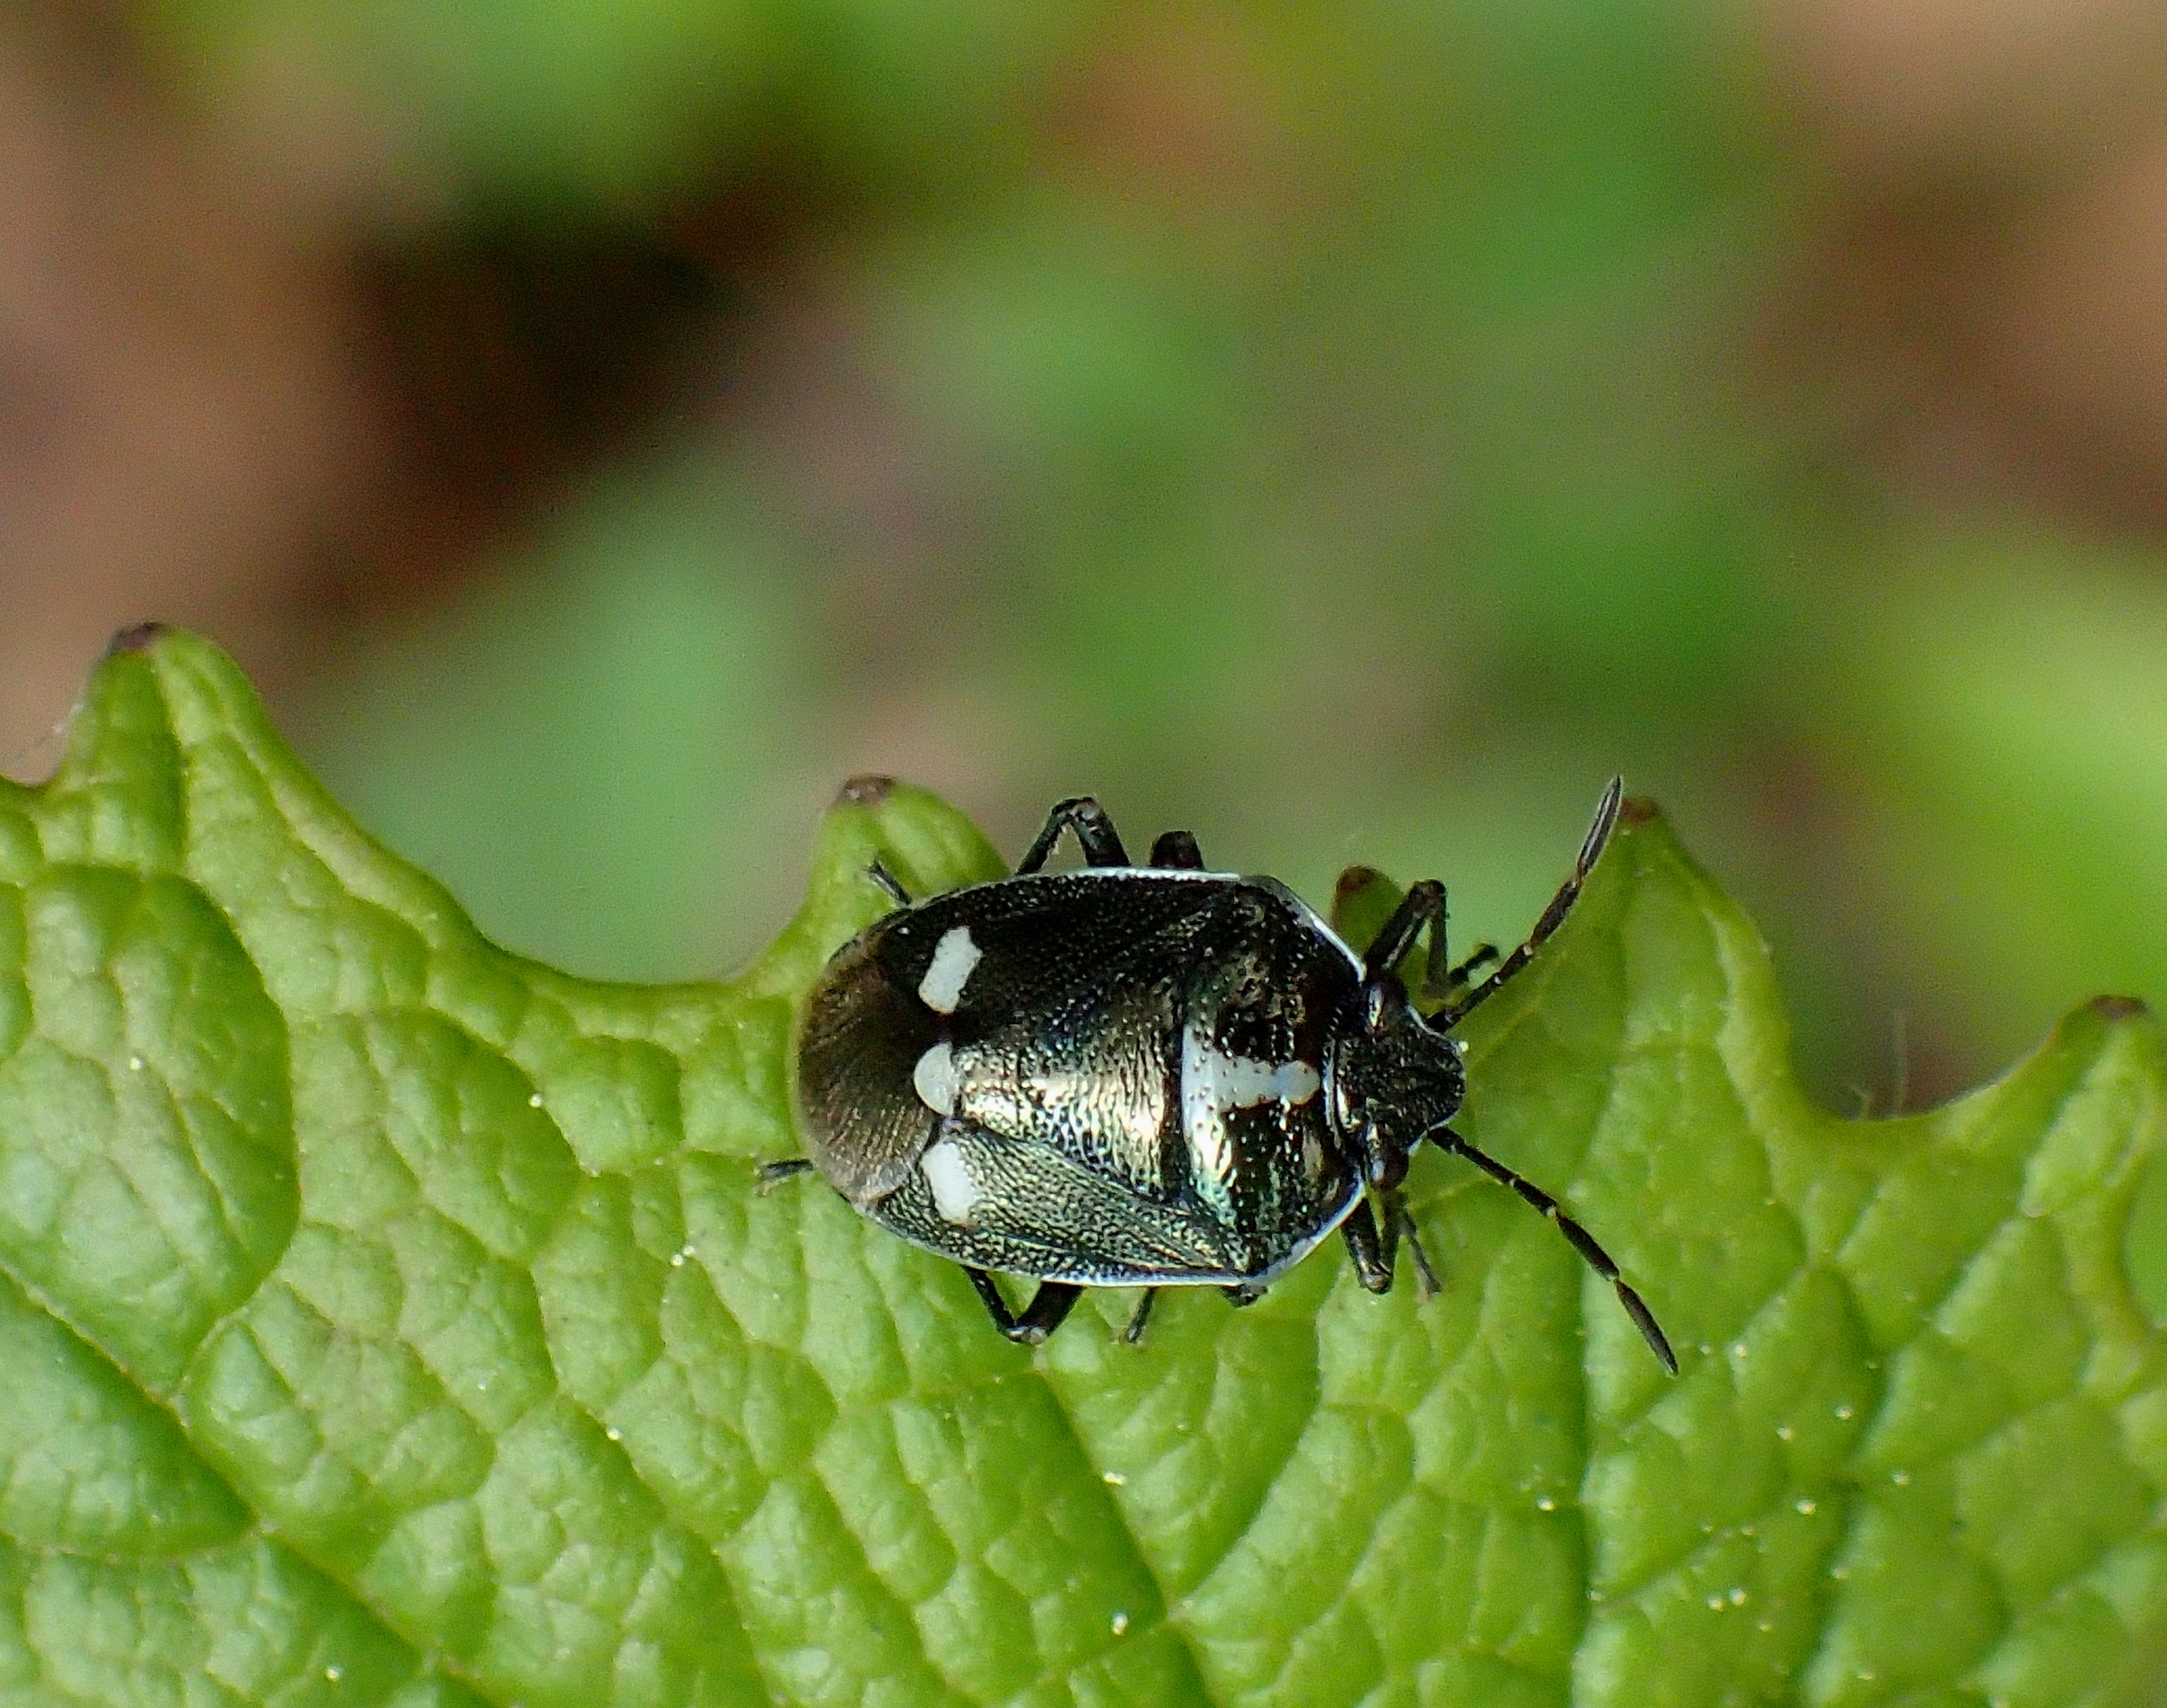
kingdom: Animalia
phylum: Arthropoda
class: Insecta
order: Hemiptera
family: Pentatomidae
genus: Eurydema
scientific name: Eurydema oleracea
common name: Almindelig kåltæge
